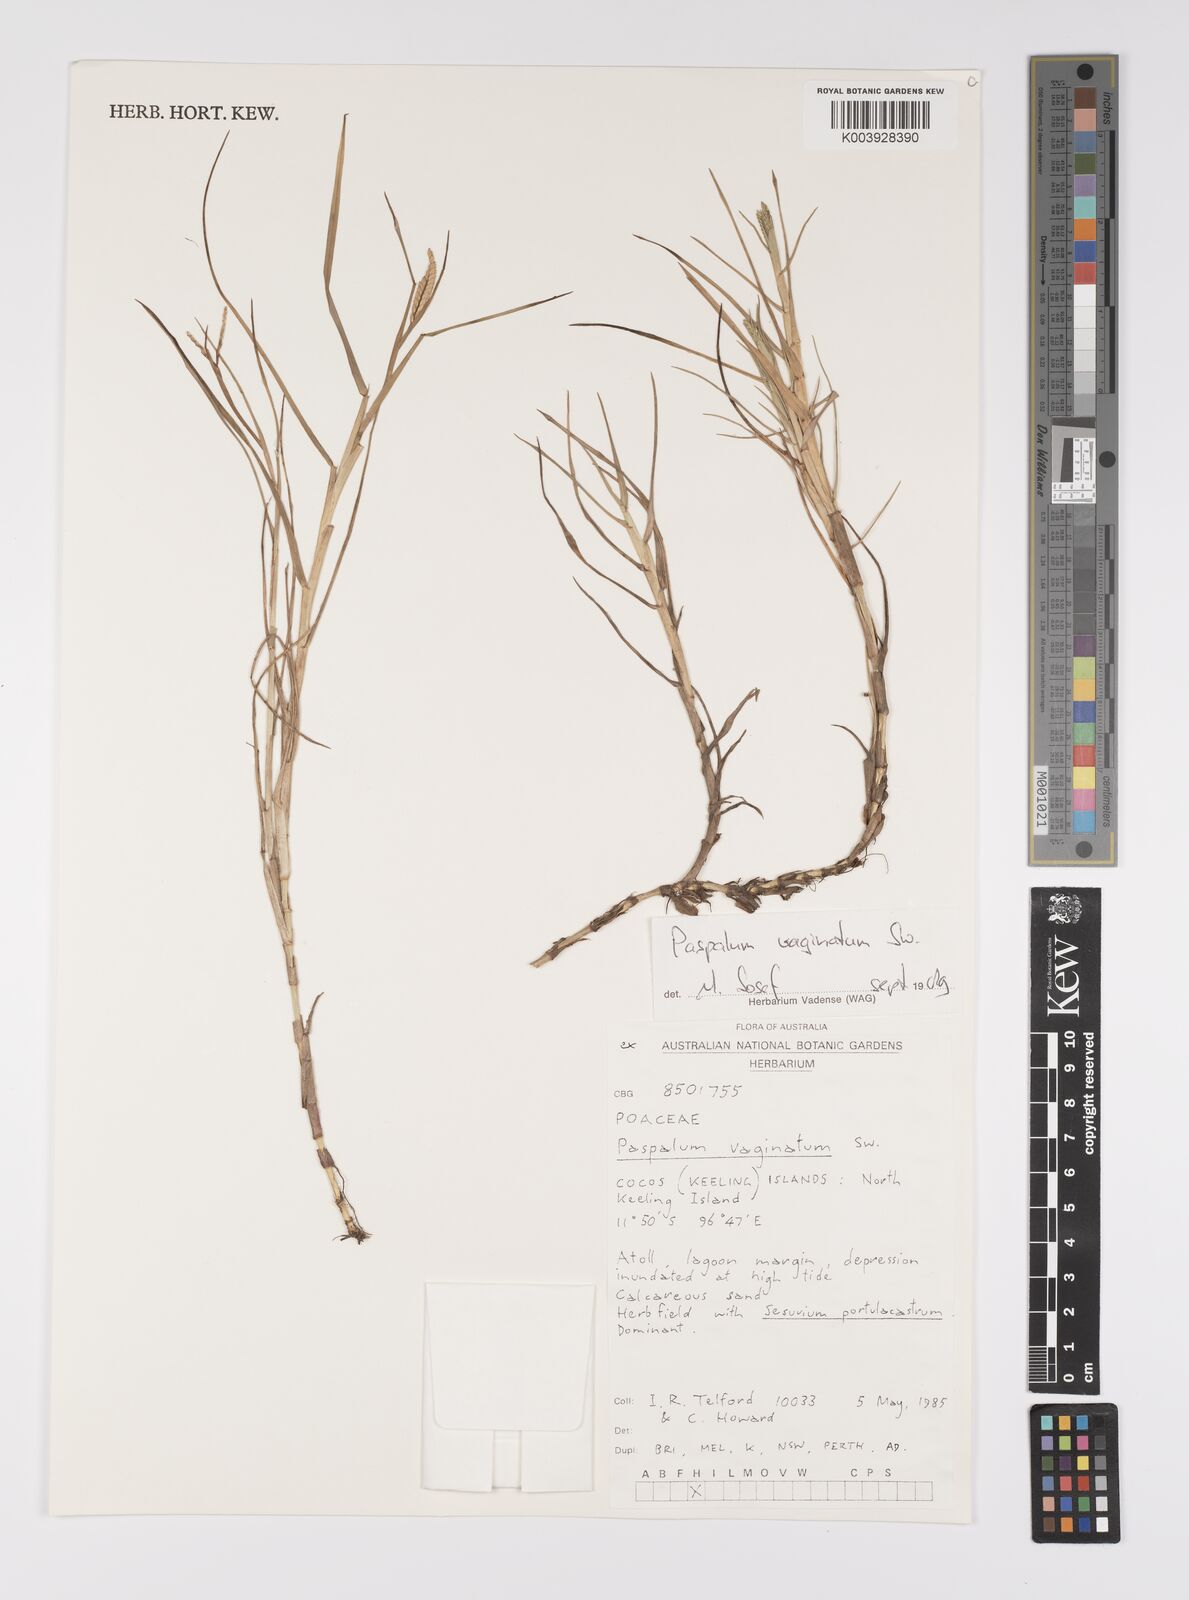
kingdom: Plantae
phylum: Tracheophyta
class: Liliopsida
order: Poales
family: Poaceae
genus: Paspalum
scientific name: Paspalum vaginatum
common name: Seashore paspalum
